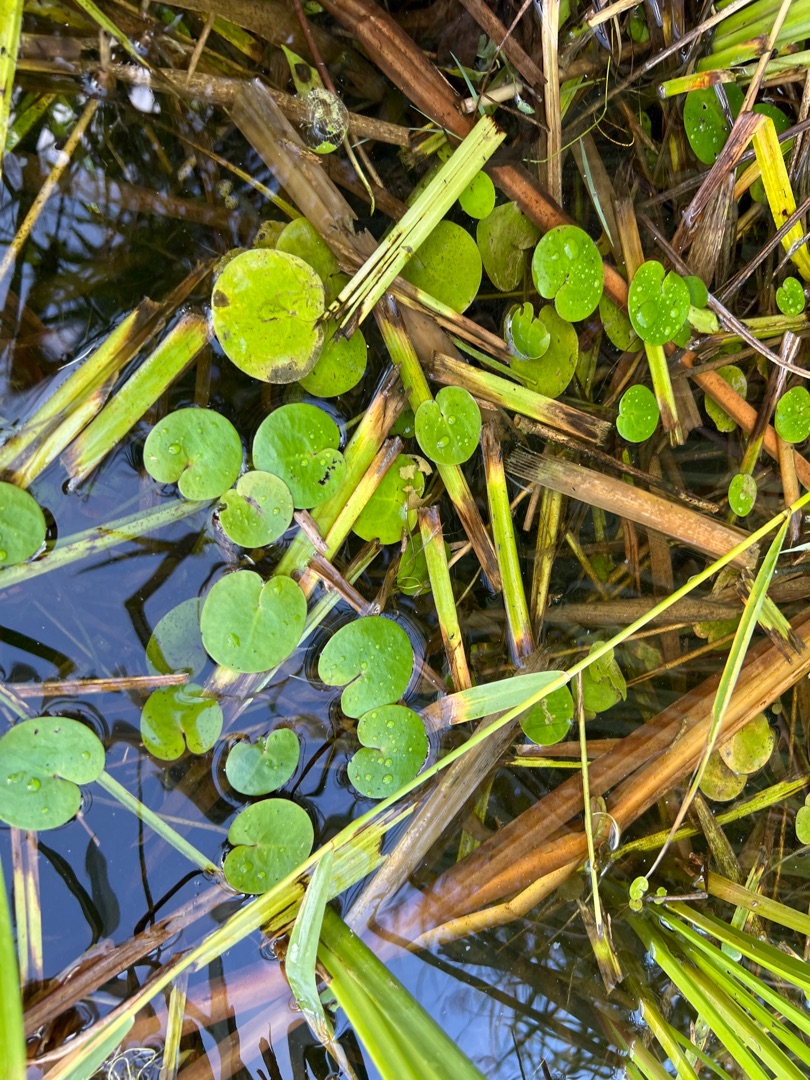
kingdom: Plantae
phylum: Tracheophyta
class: Liliopsida
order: Alismatales
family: Hydrocharitaceae
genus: Hydrocharis
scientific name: Hydrocharis morsus-ranae
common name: Frøbid
